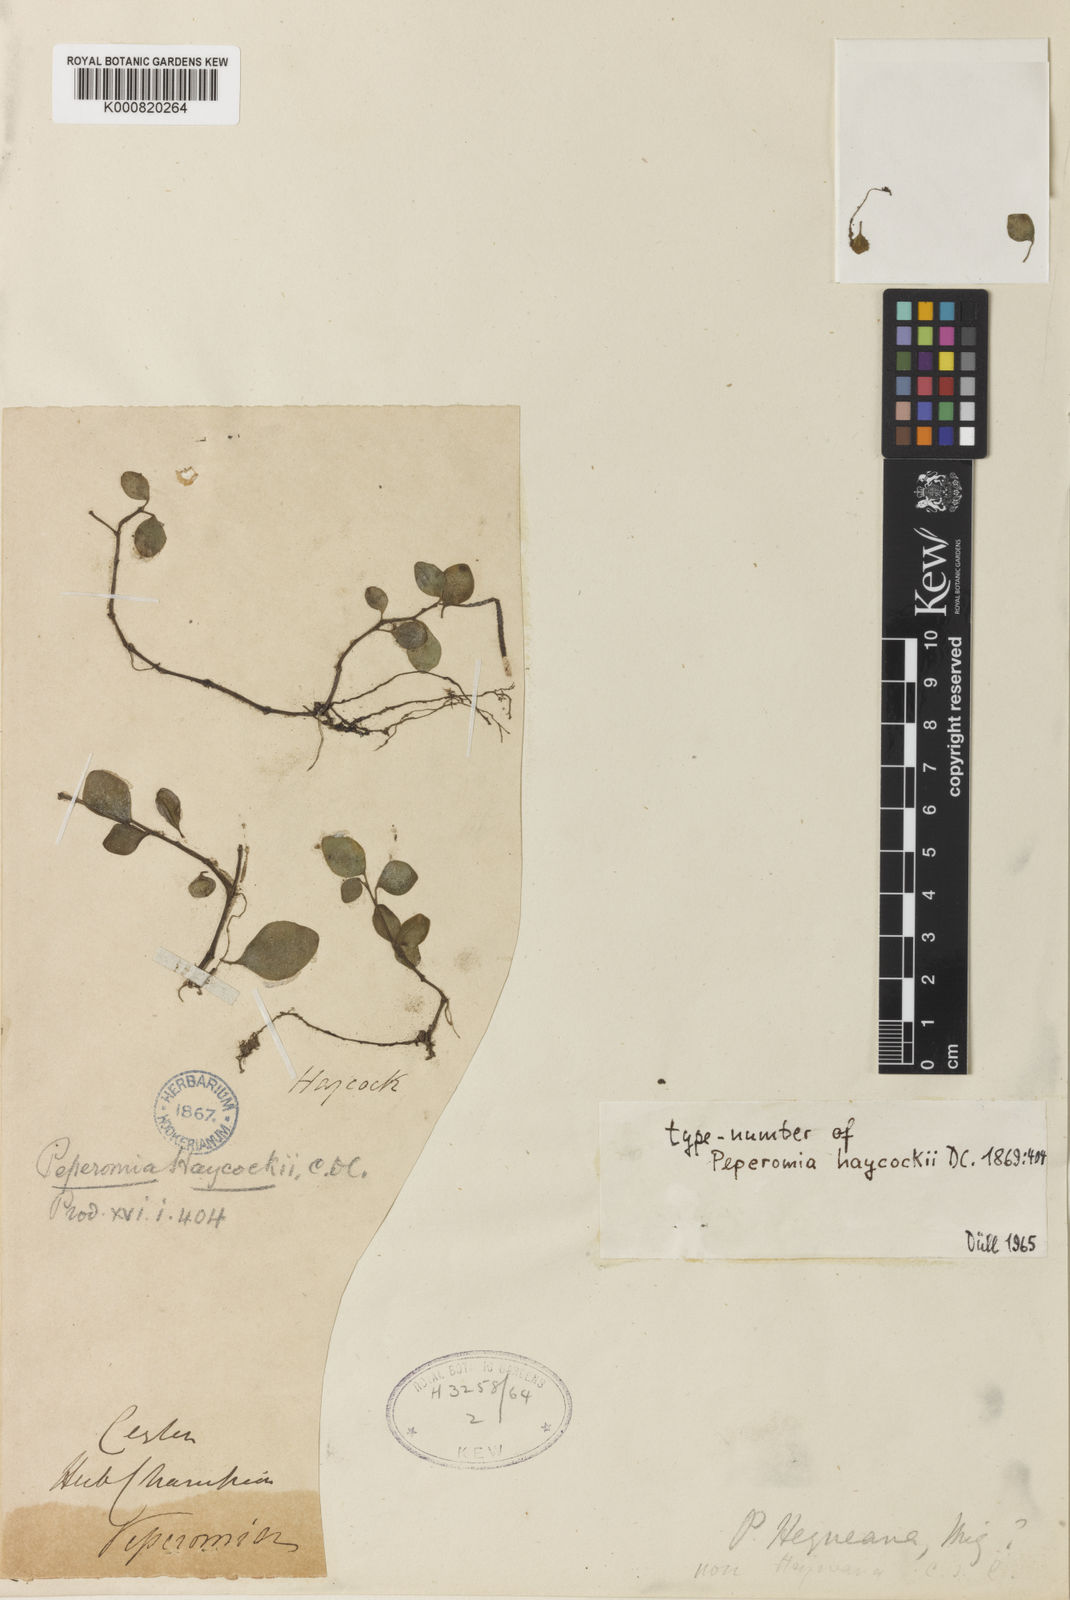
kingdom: Plantae
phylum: Tracheophyta
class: Magnoliopsida
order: Piperales
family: Piperaceae
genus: Peperomia
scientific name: Peperomia heyneana
